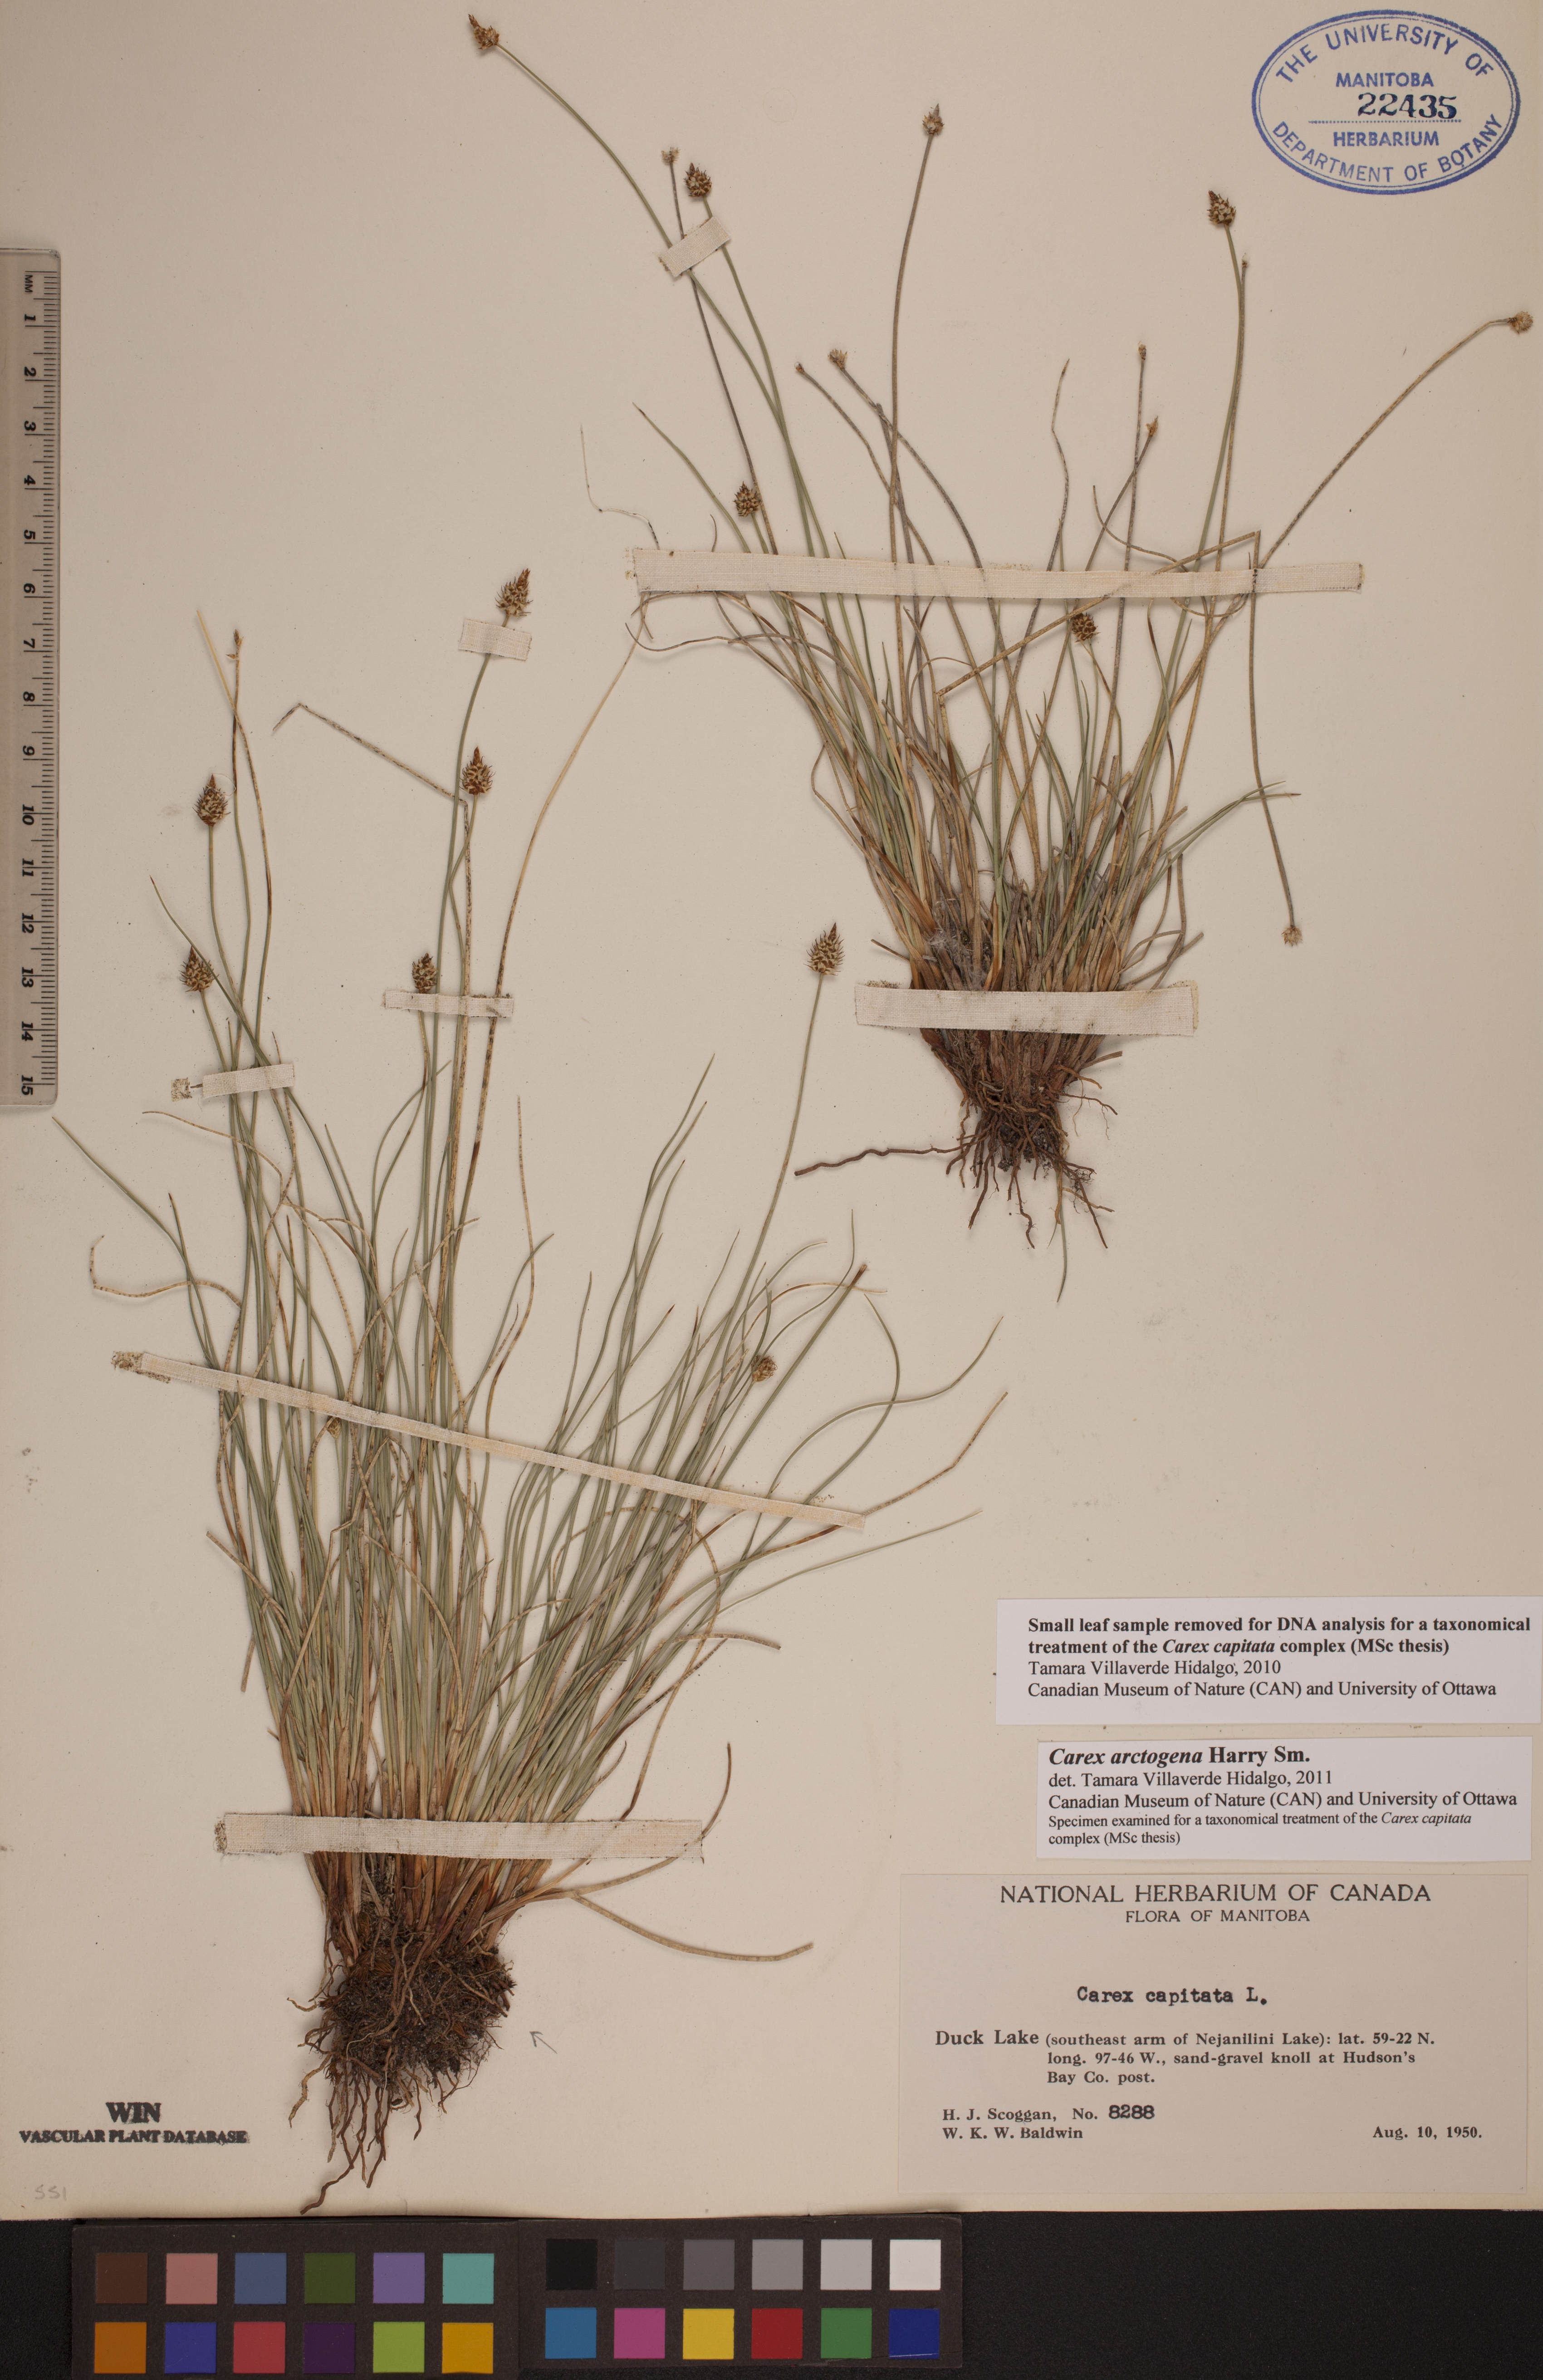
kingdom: Plantae
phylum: Tracheophyta
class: Liliopsida
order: Poales
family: Cyperaceae
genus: Carex
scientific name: Carex arctogena
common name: Black sedge
